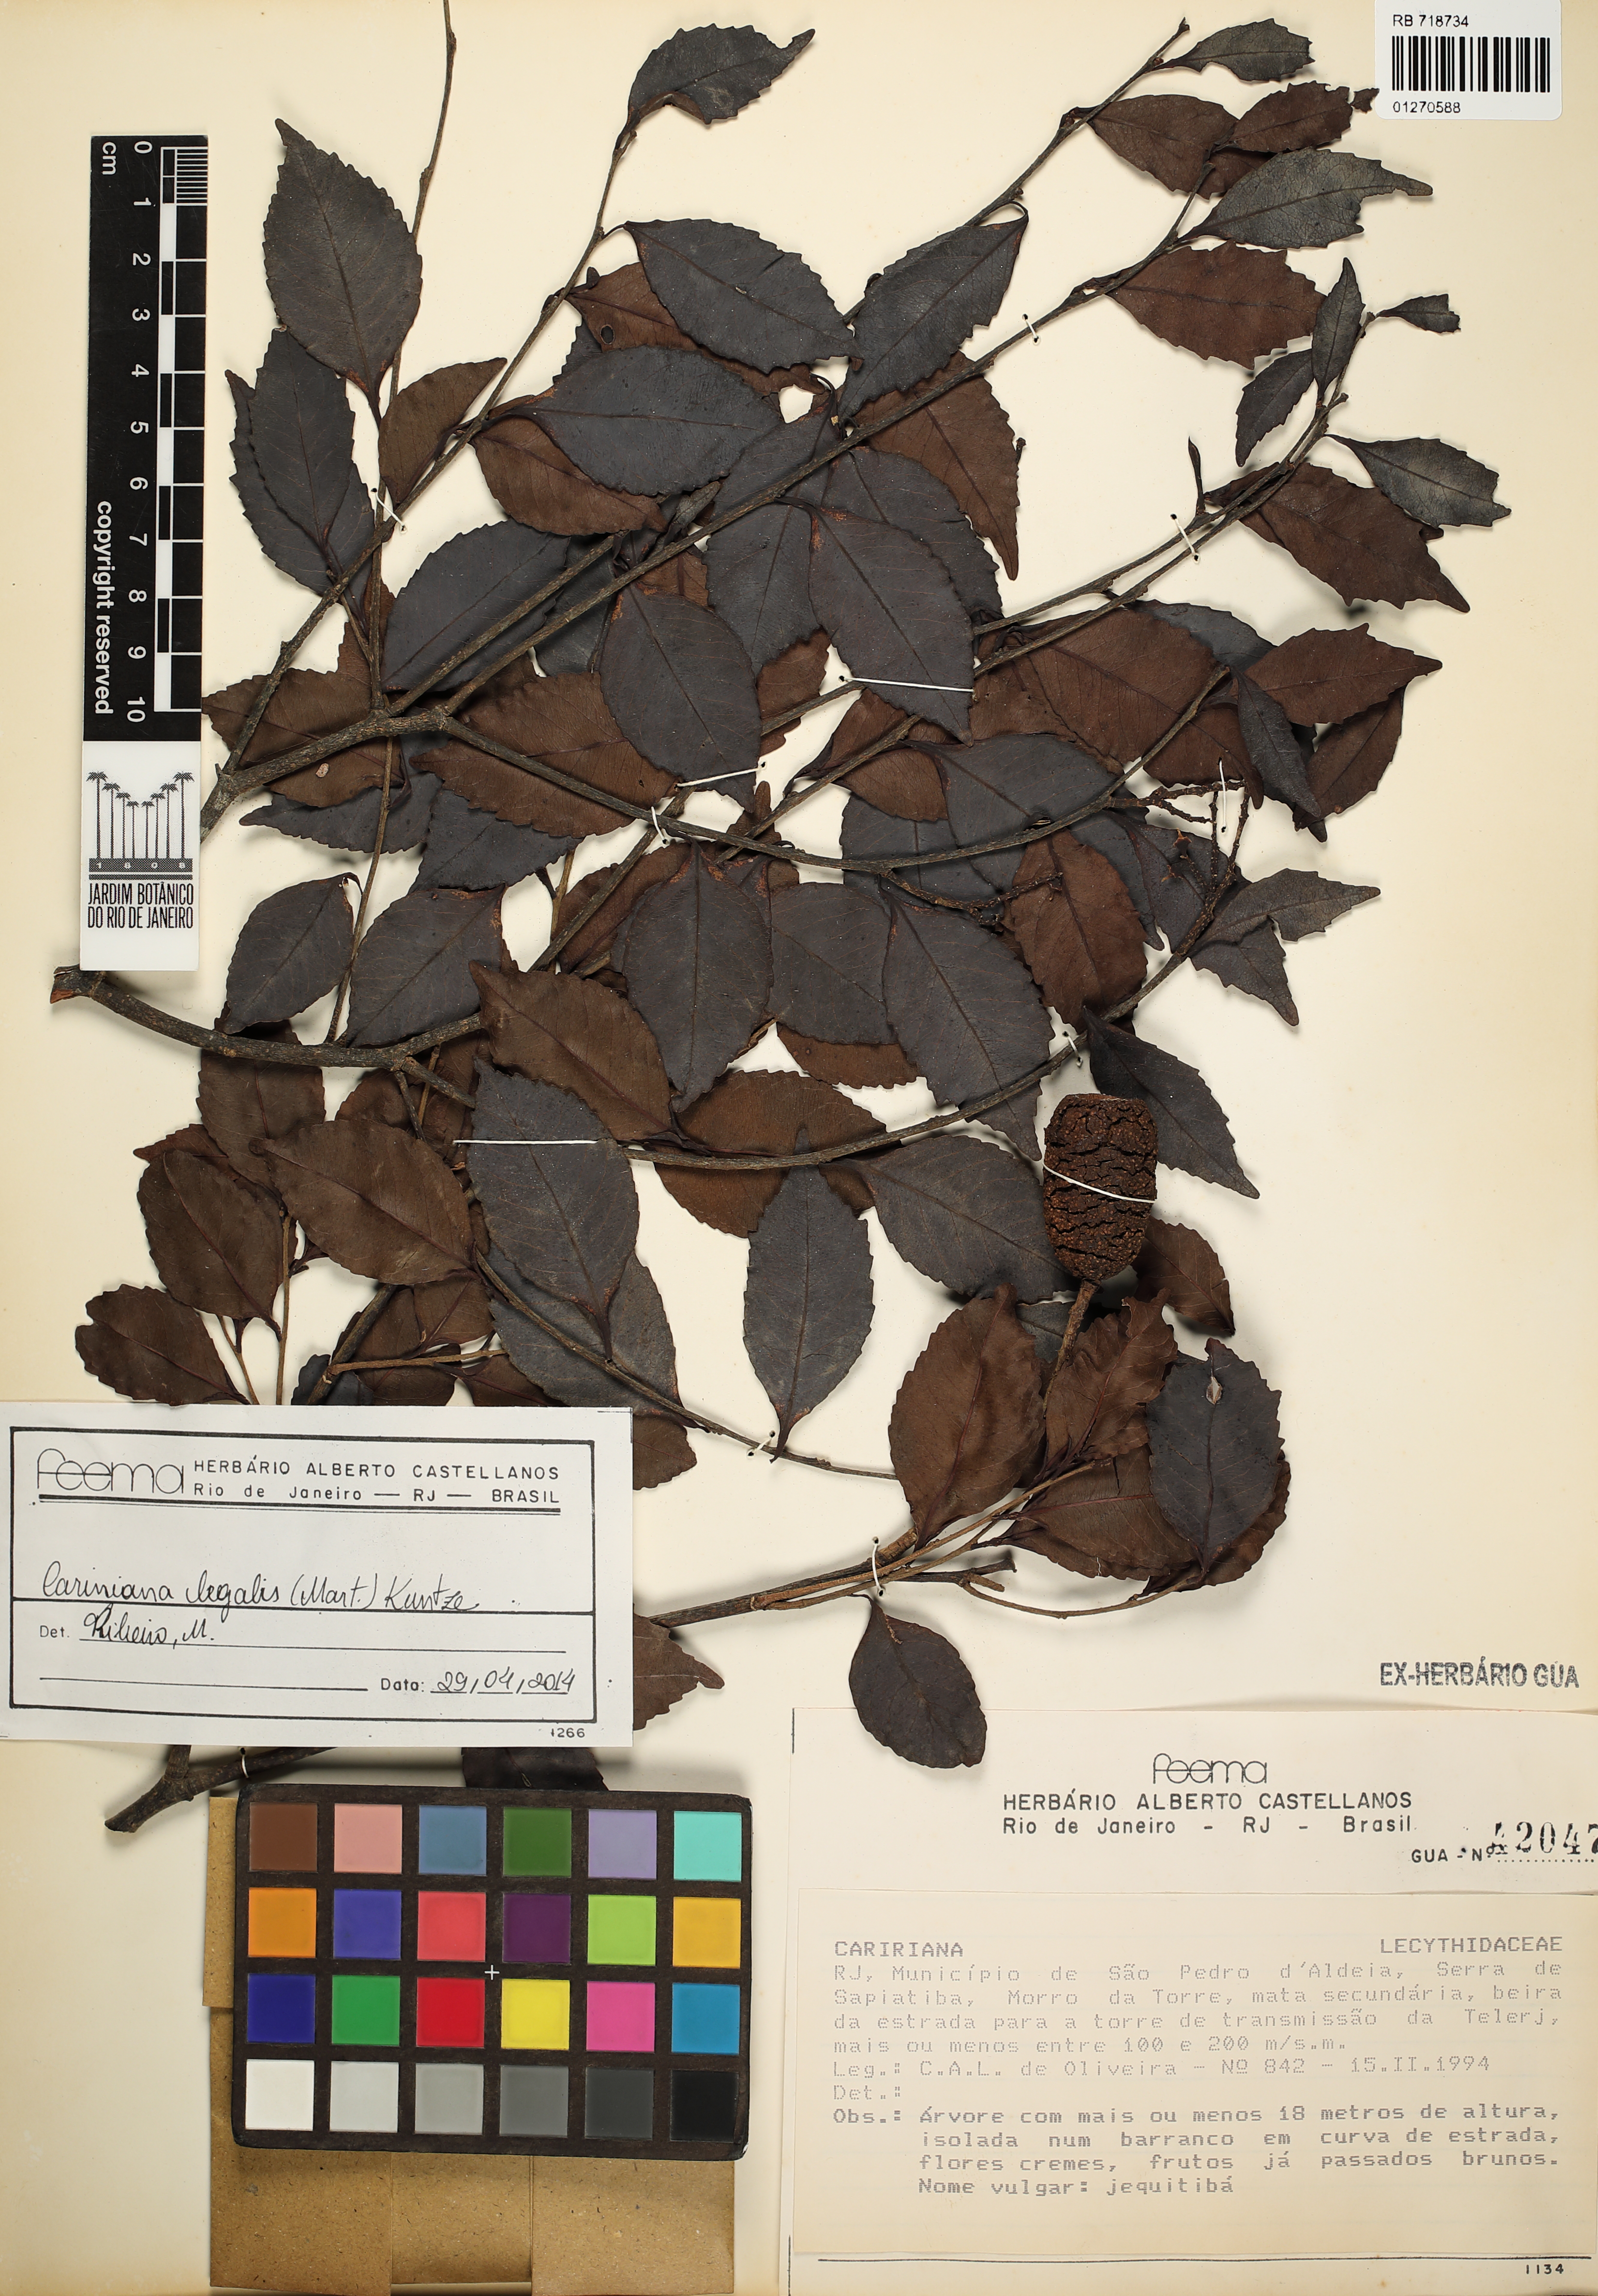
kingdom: Plantae
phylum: Tracheophyta
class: Magnoliopsida
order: Ericales
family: Lecythidaceae
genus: Cariniana
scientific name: Cariniana legalis
